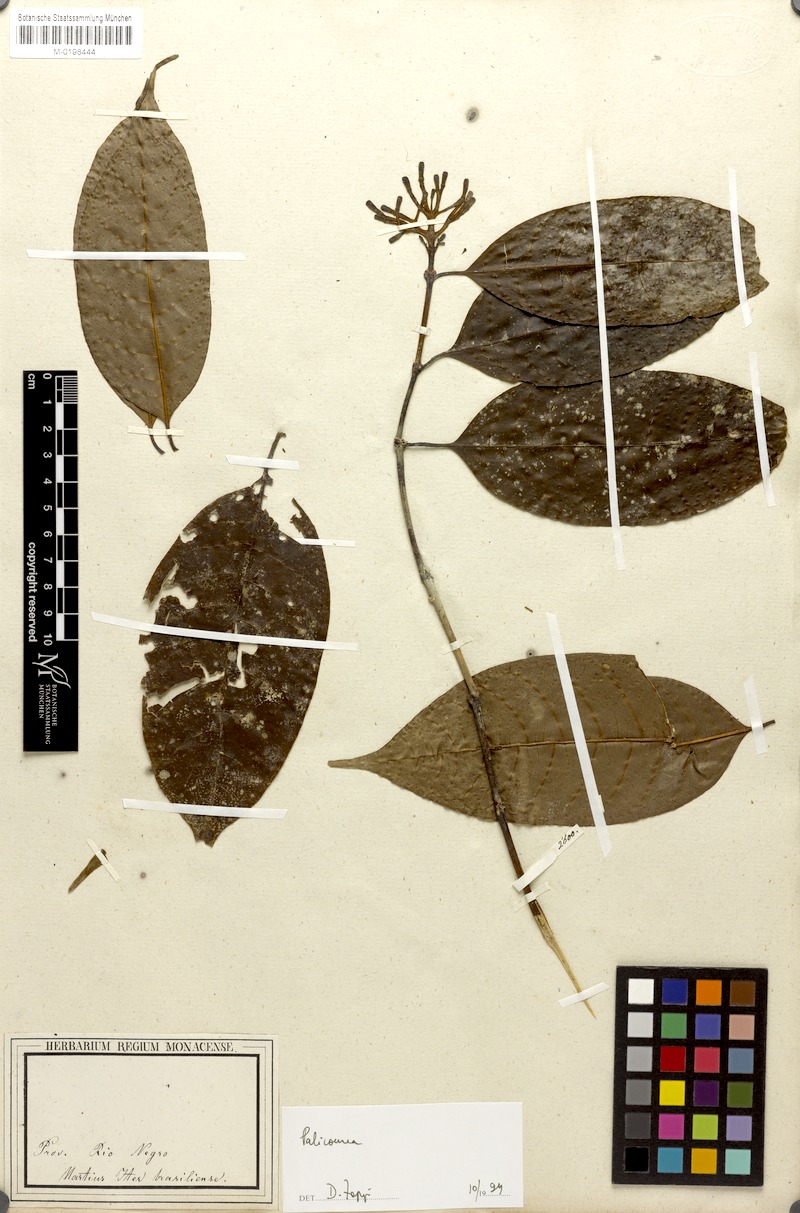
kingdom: Plantae
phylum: Tracheophyta
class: Magnoliopsida
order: Gentianales
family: Rubiaceae
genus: Palicourea
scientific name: Palicourea
